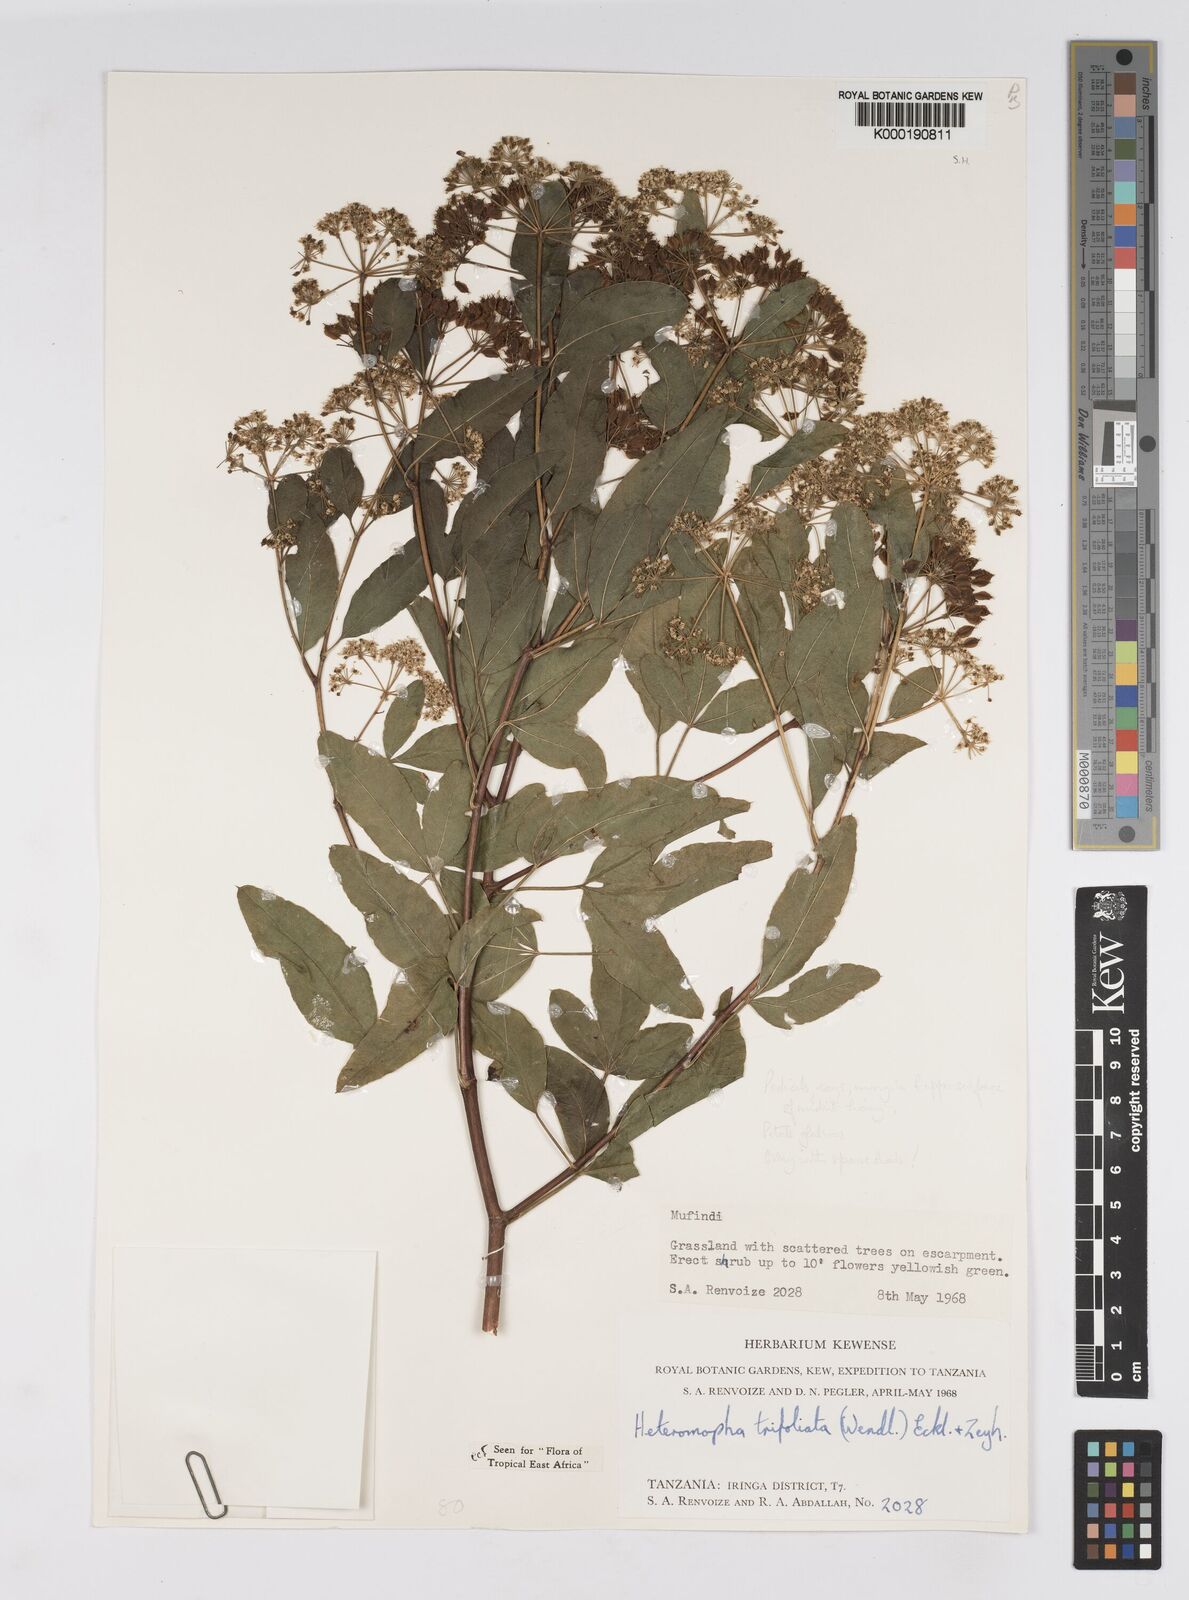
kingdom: Plantae
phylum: Tracheophyta
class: Magnoliopsida
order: Apiales
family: Apiaceae
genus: Heteromorpha
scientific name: Heteromorpha arborescens
